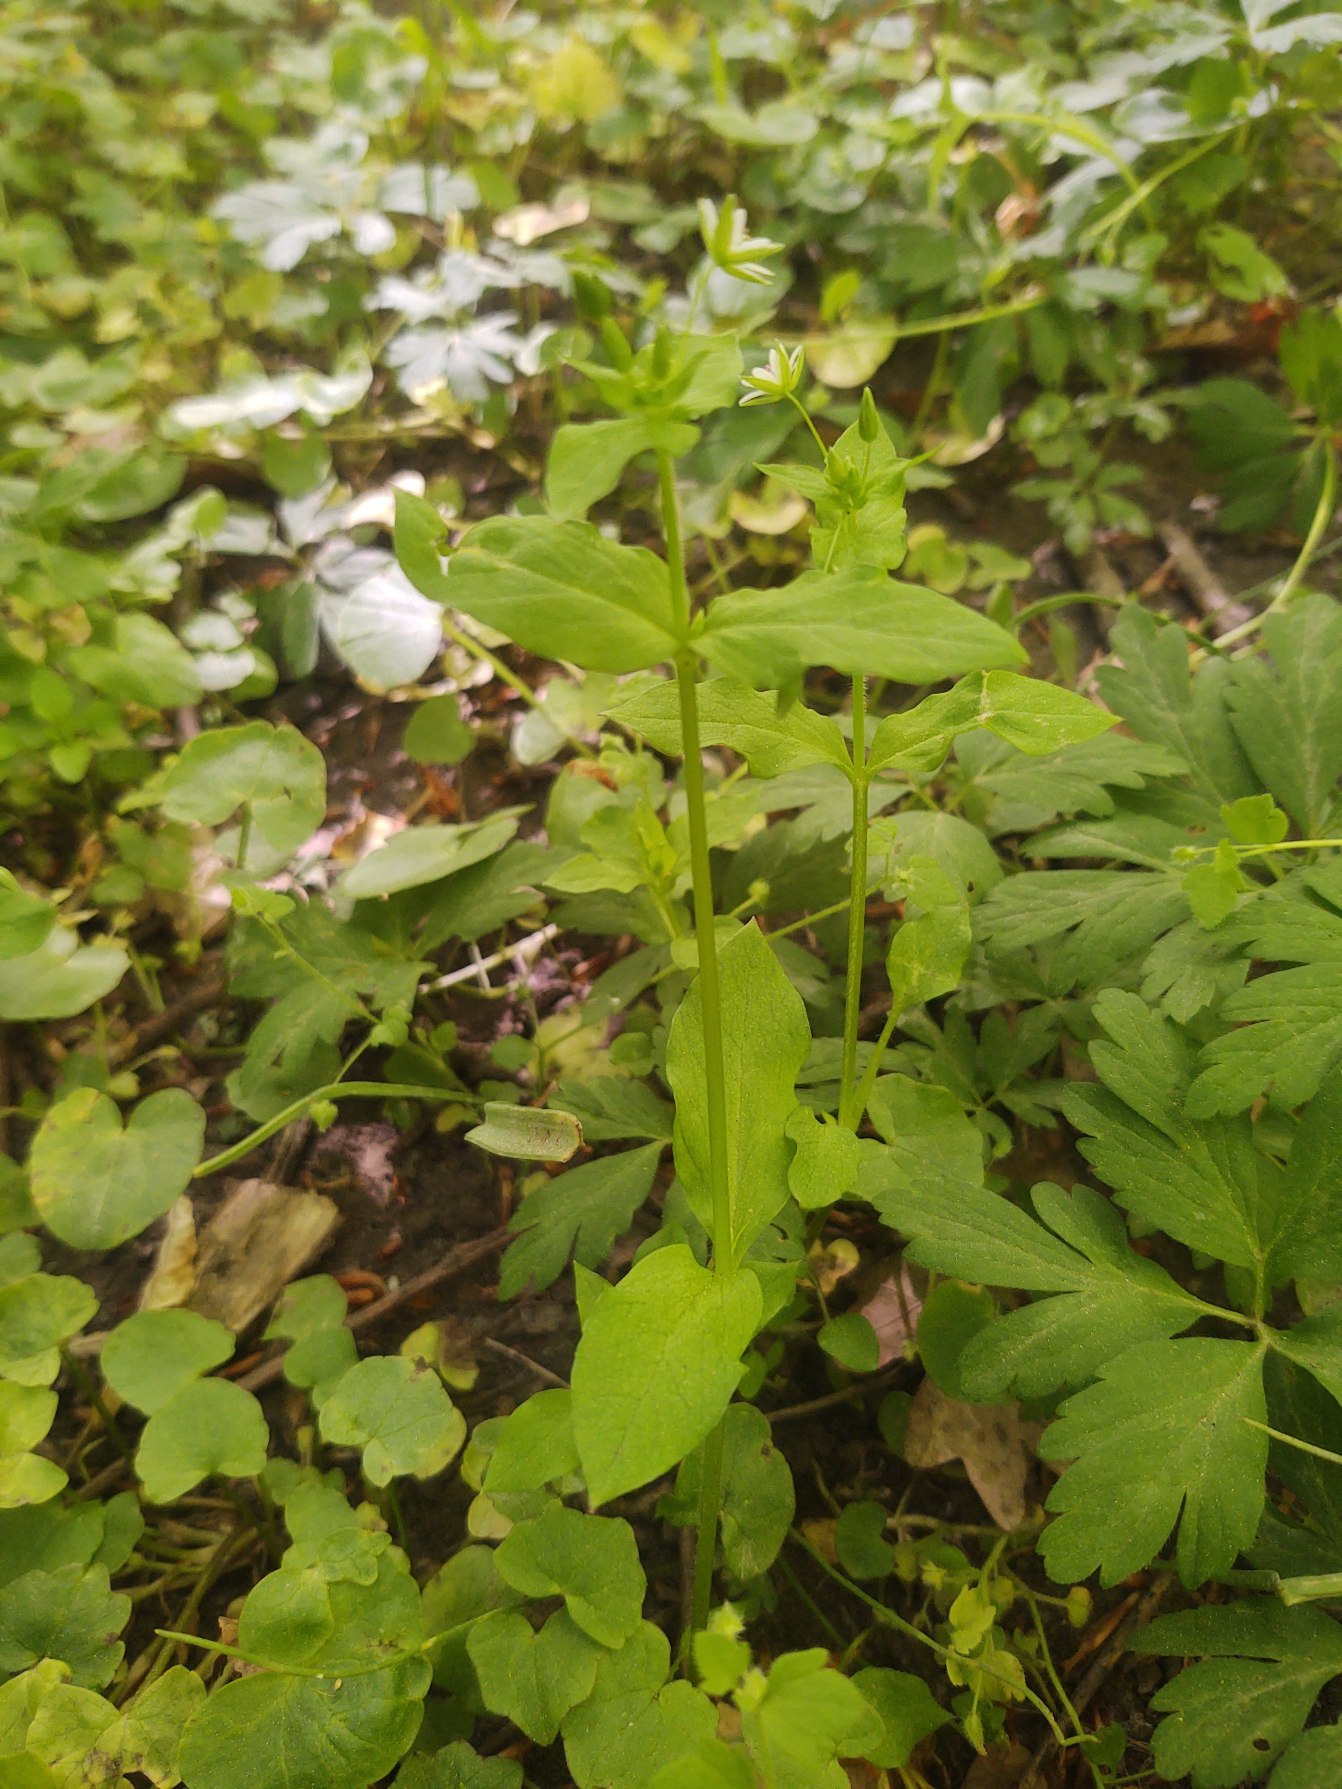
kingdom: Plantae
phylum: Tracheophyta
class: Magnoliopsida
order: Caryophyllales
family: Caryophyllaceae
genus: Stellaria
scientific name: Stellaria neglecta
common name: Skov-fuglegræs
